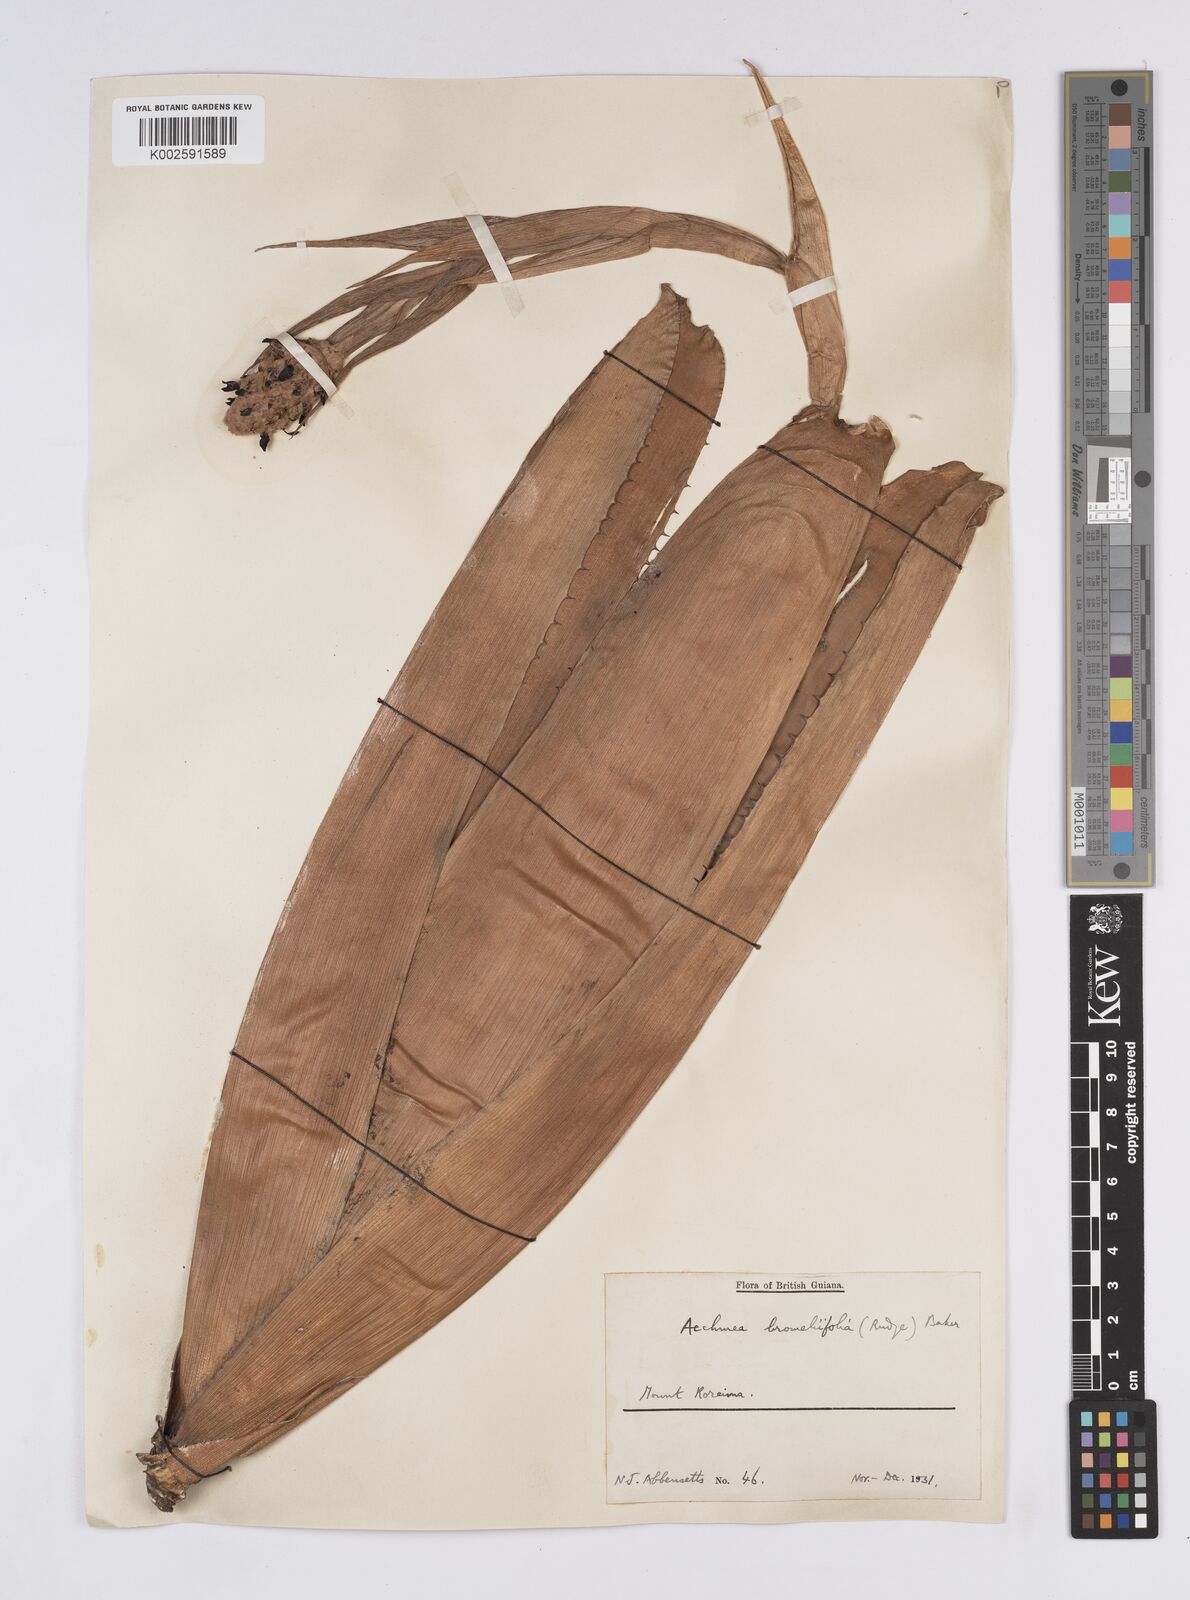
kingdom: Plantae
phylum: Tracheophyta
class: Liliopsida
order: Poales
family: Bromeliaceae
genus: Aechmea
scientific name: Aechmea bromeliifolia
